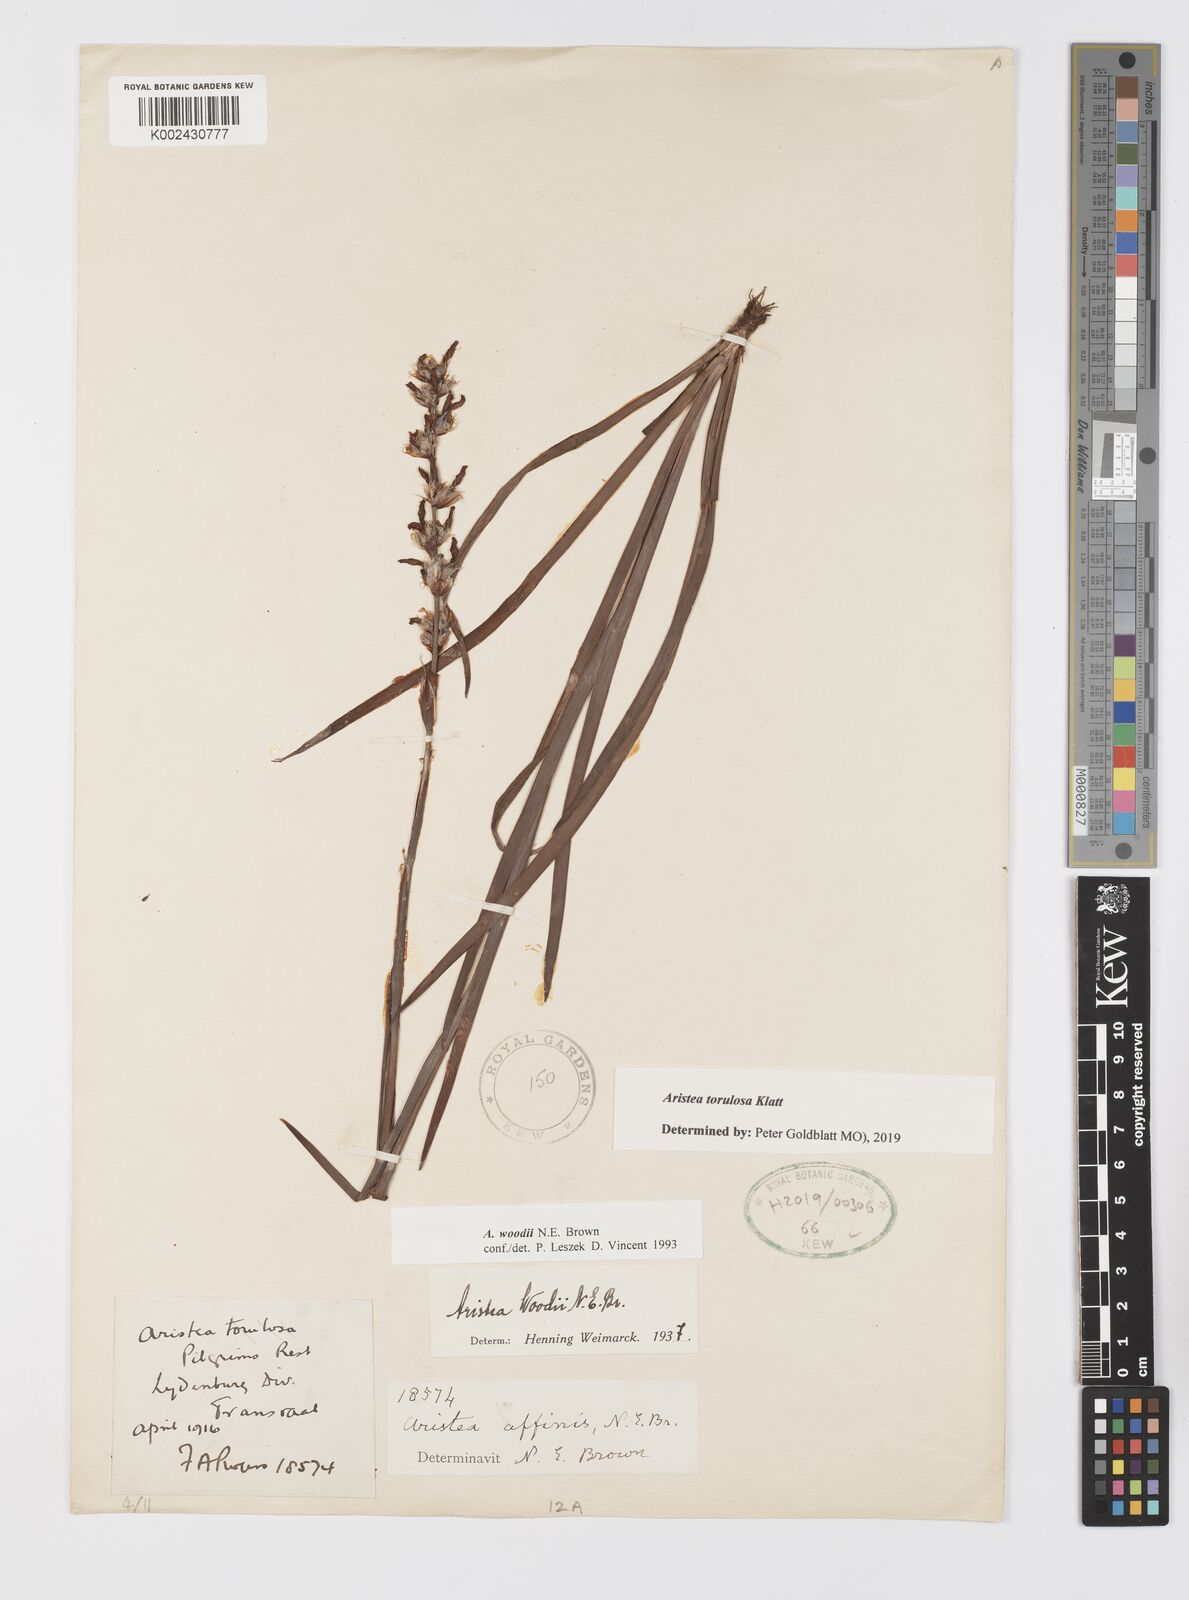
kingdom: Plantae
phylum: Tracheophyta
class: Liliopsida
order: Asparagales
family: Iridaceae
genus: Aristea
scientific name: Aristea torulosa
